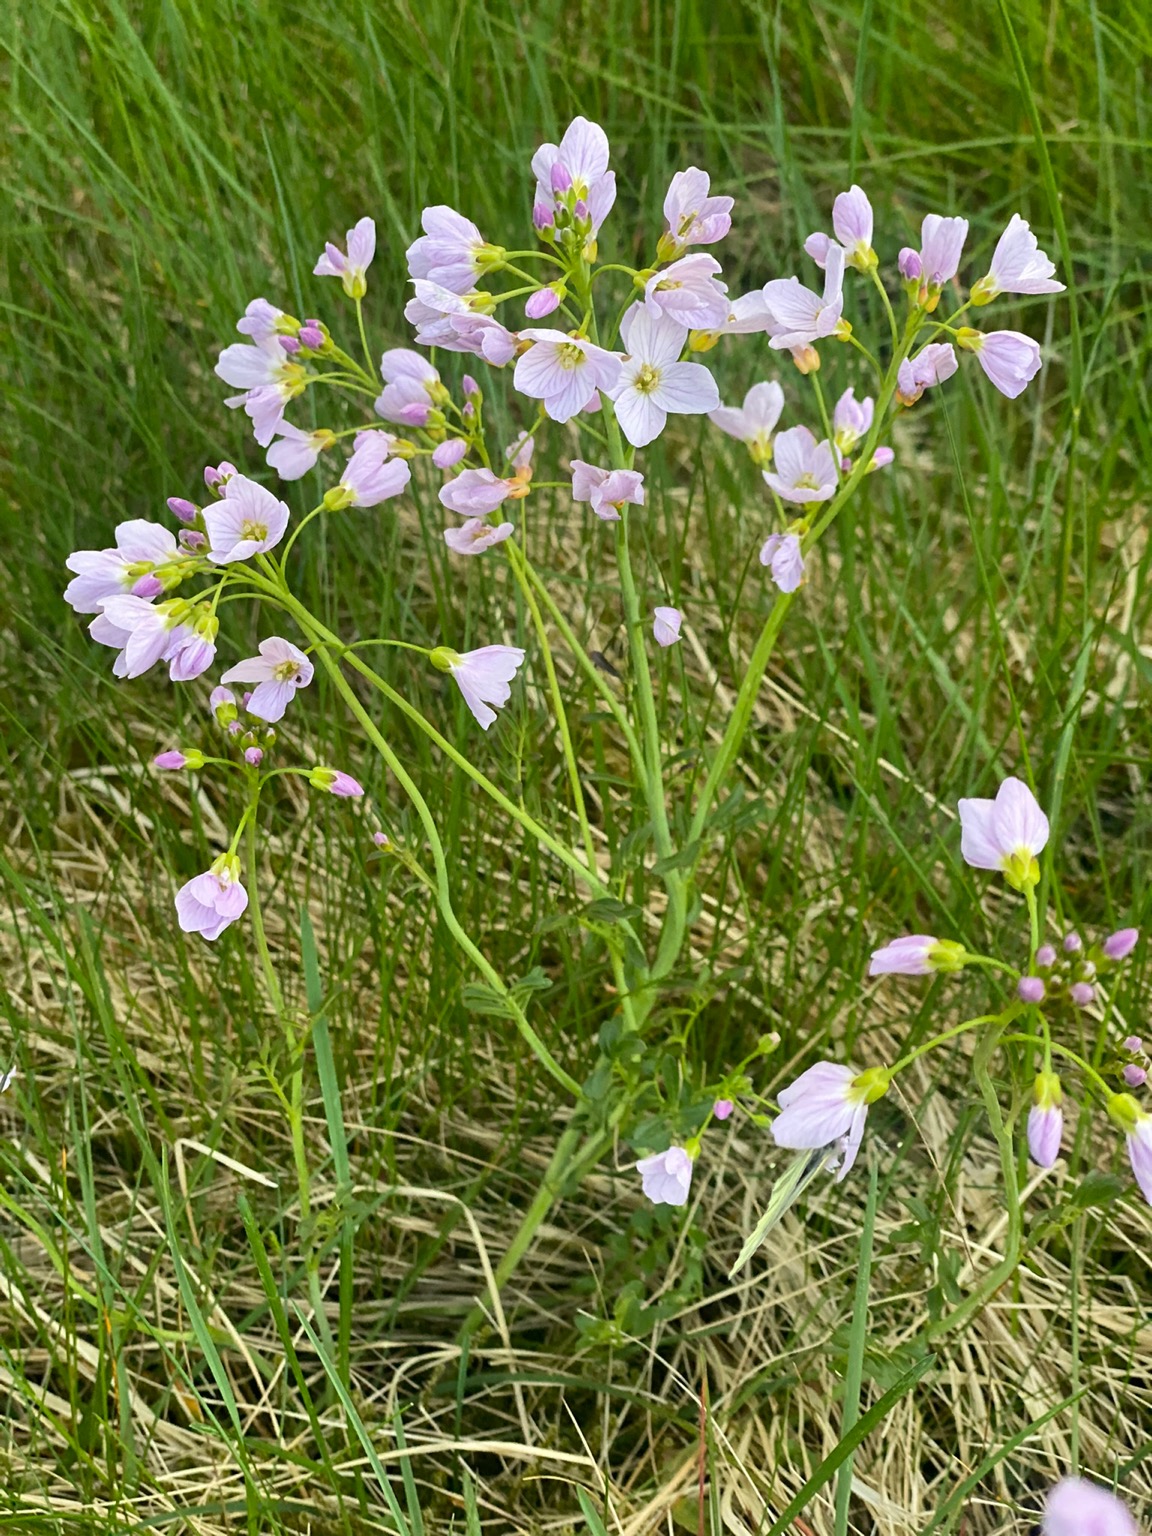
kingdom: Plantae
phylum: Tracheophyta
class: Magnoliopsida
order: Brassicales
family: Brassicaceae
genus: Cardamine
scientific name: Cardamine pratensis
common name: Engkarse
